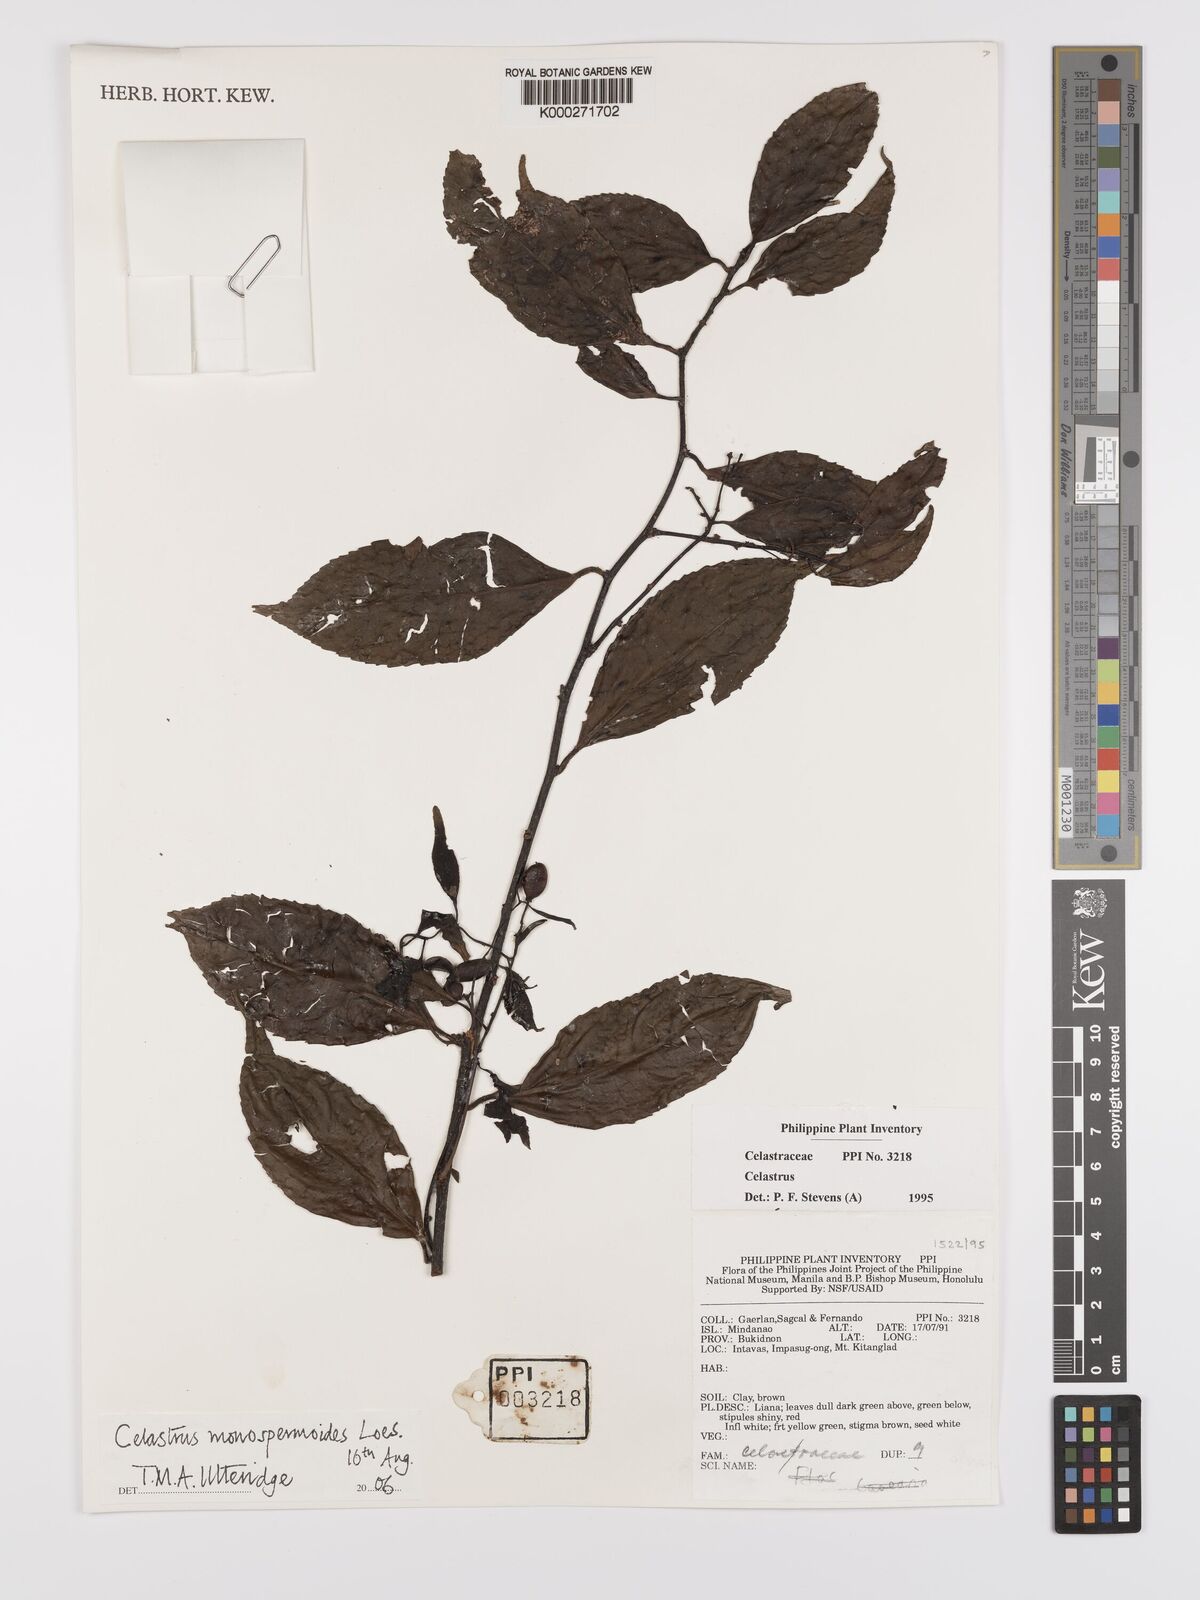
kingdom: Plantae
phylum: Tracheophyta
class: Magnoliopsida
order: Celastrales
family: Celastraceae
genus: Celastrus
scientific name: Celastrus monospermoides
